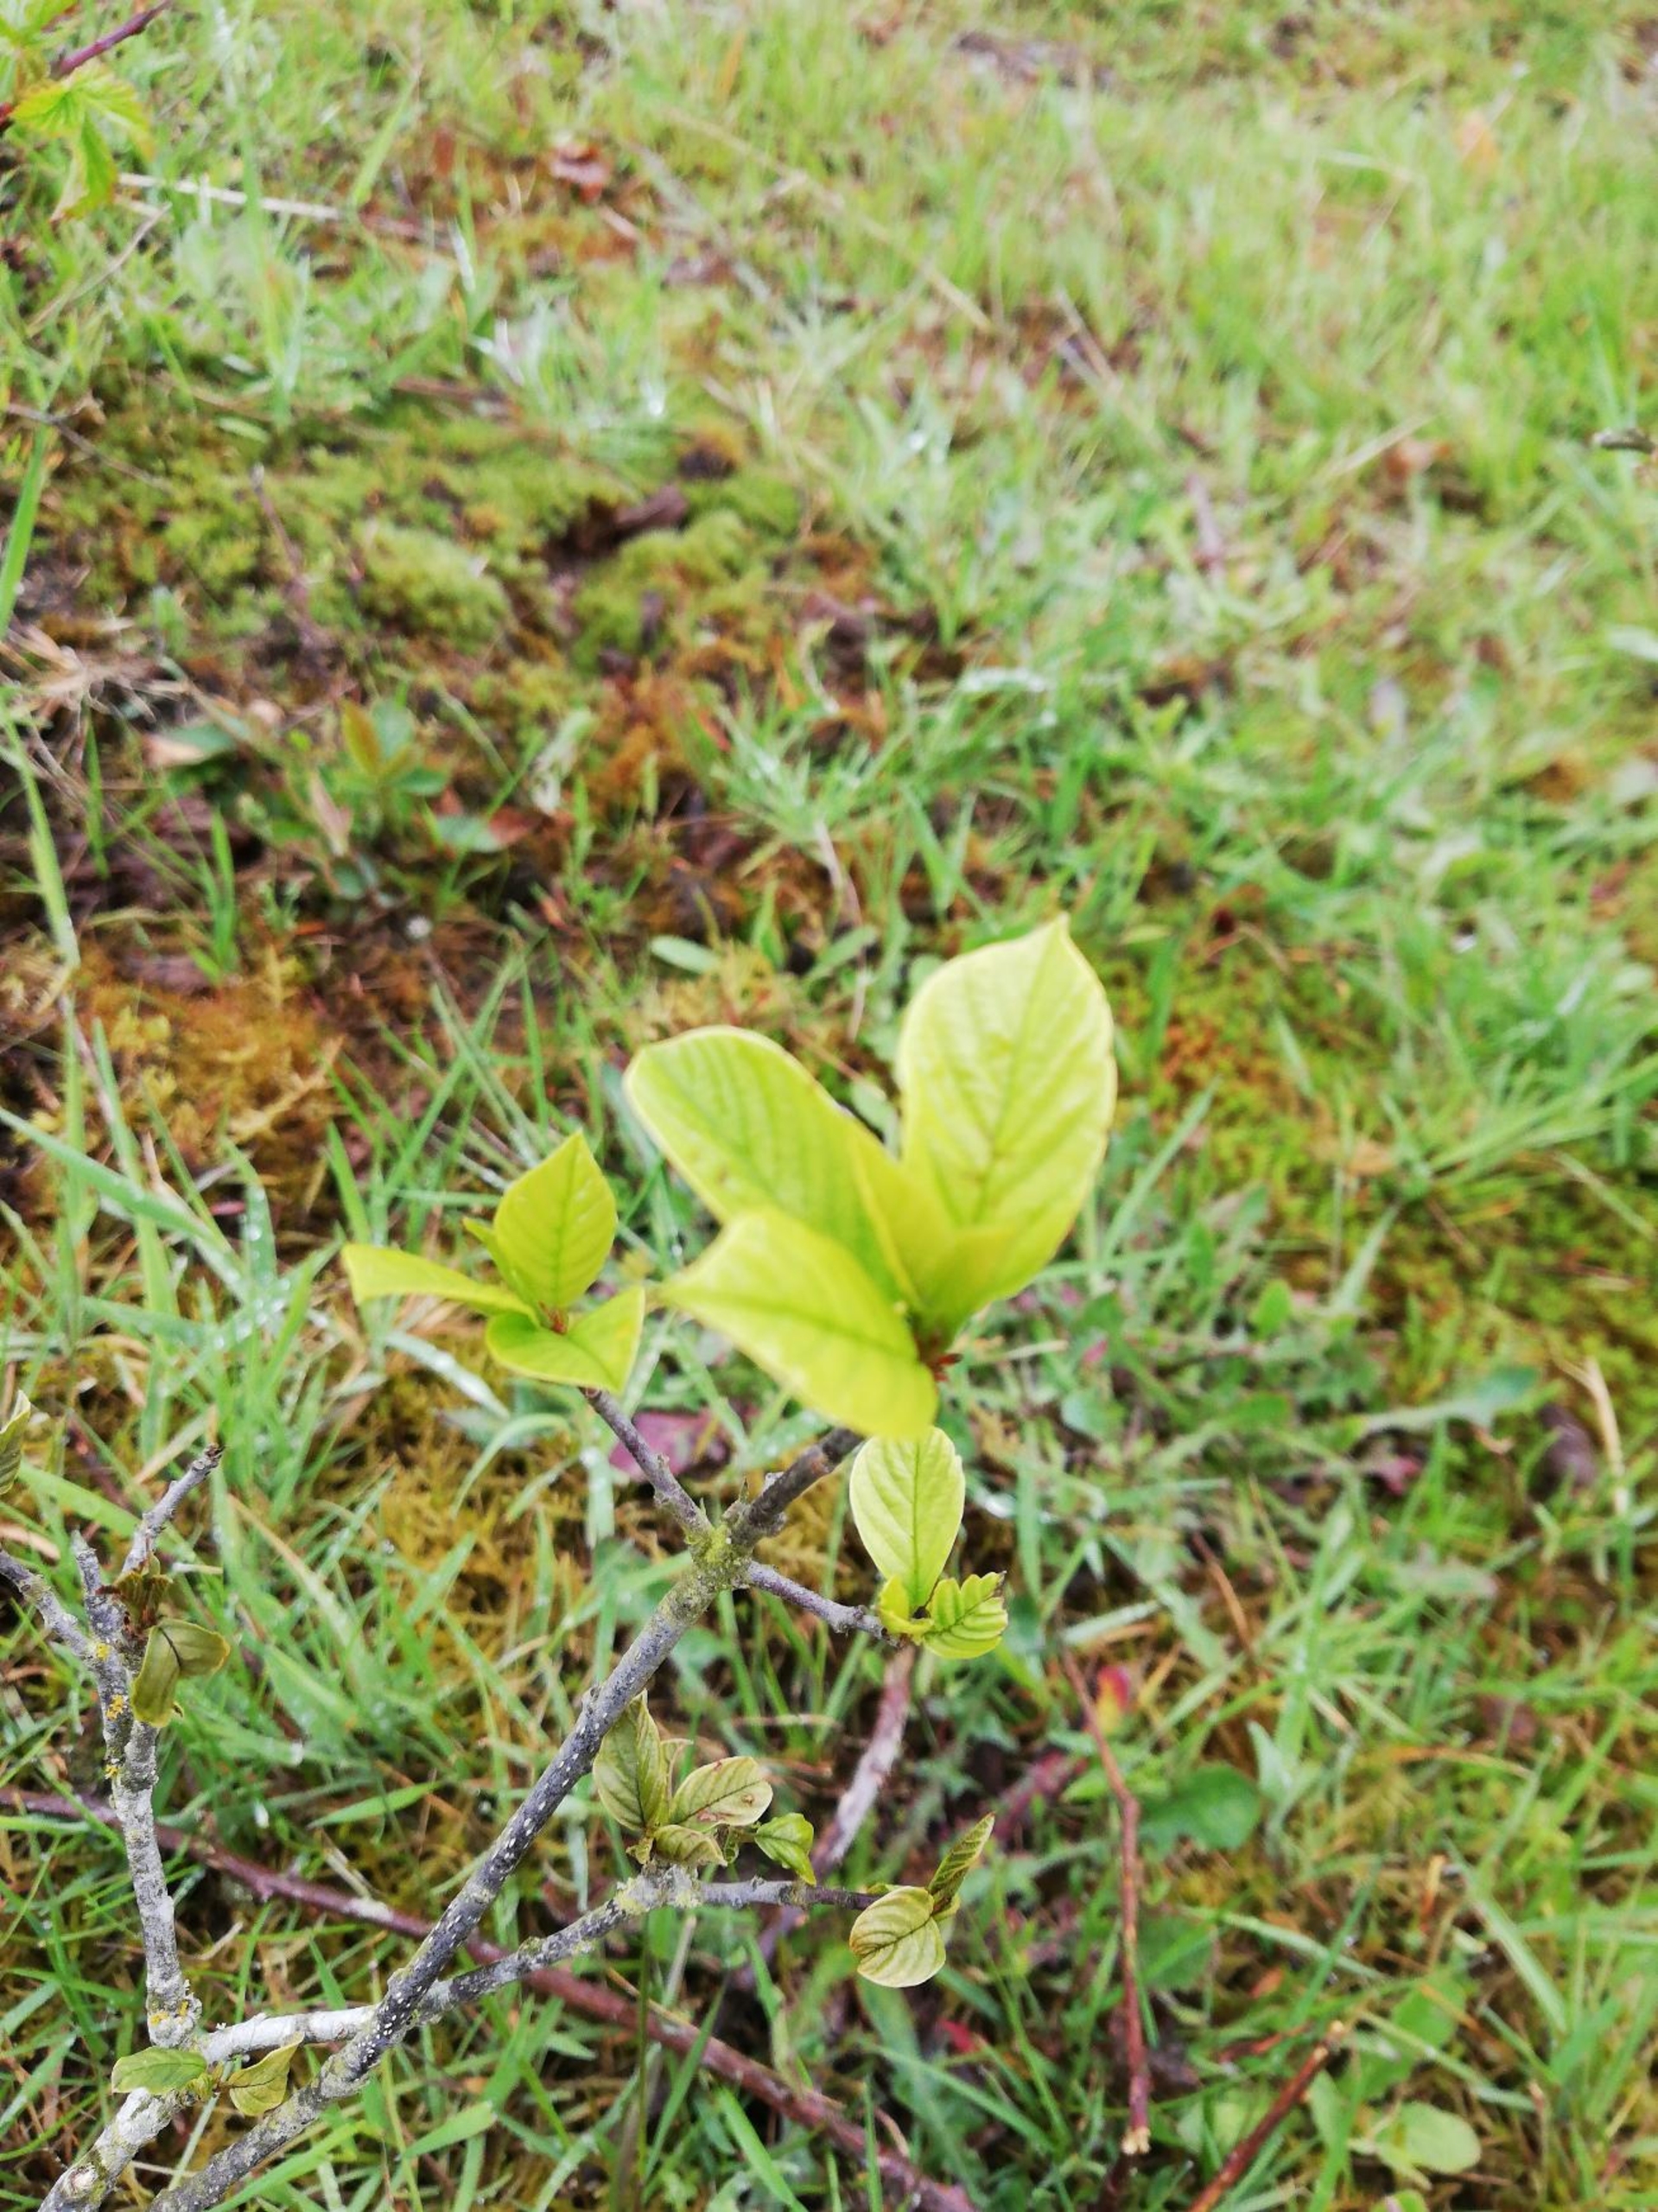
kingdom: Plantae
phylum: Tracheophyta
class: Magnoliopsida
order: Rosales
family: Rhamnaceae
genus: Frangula
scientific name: Frangula alnus
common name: Tørst
